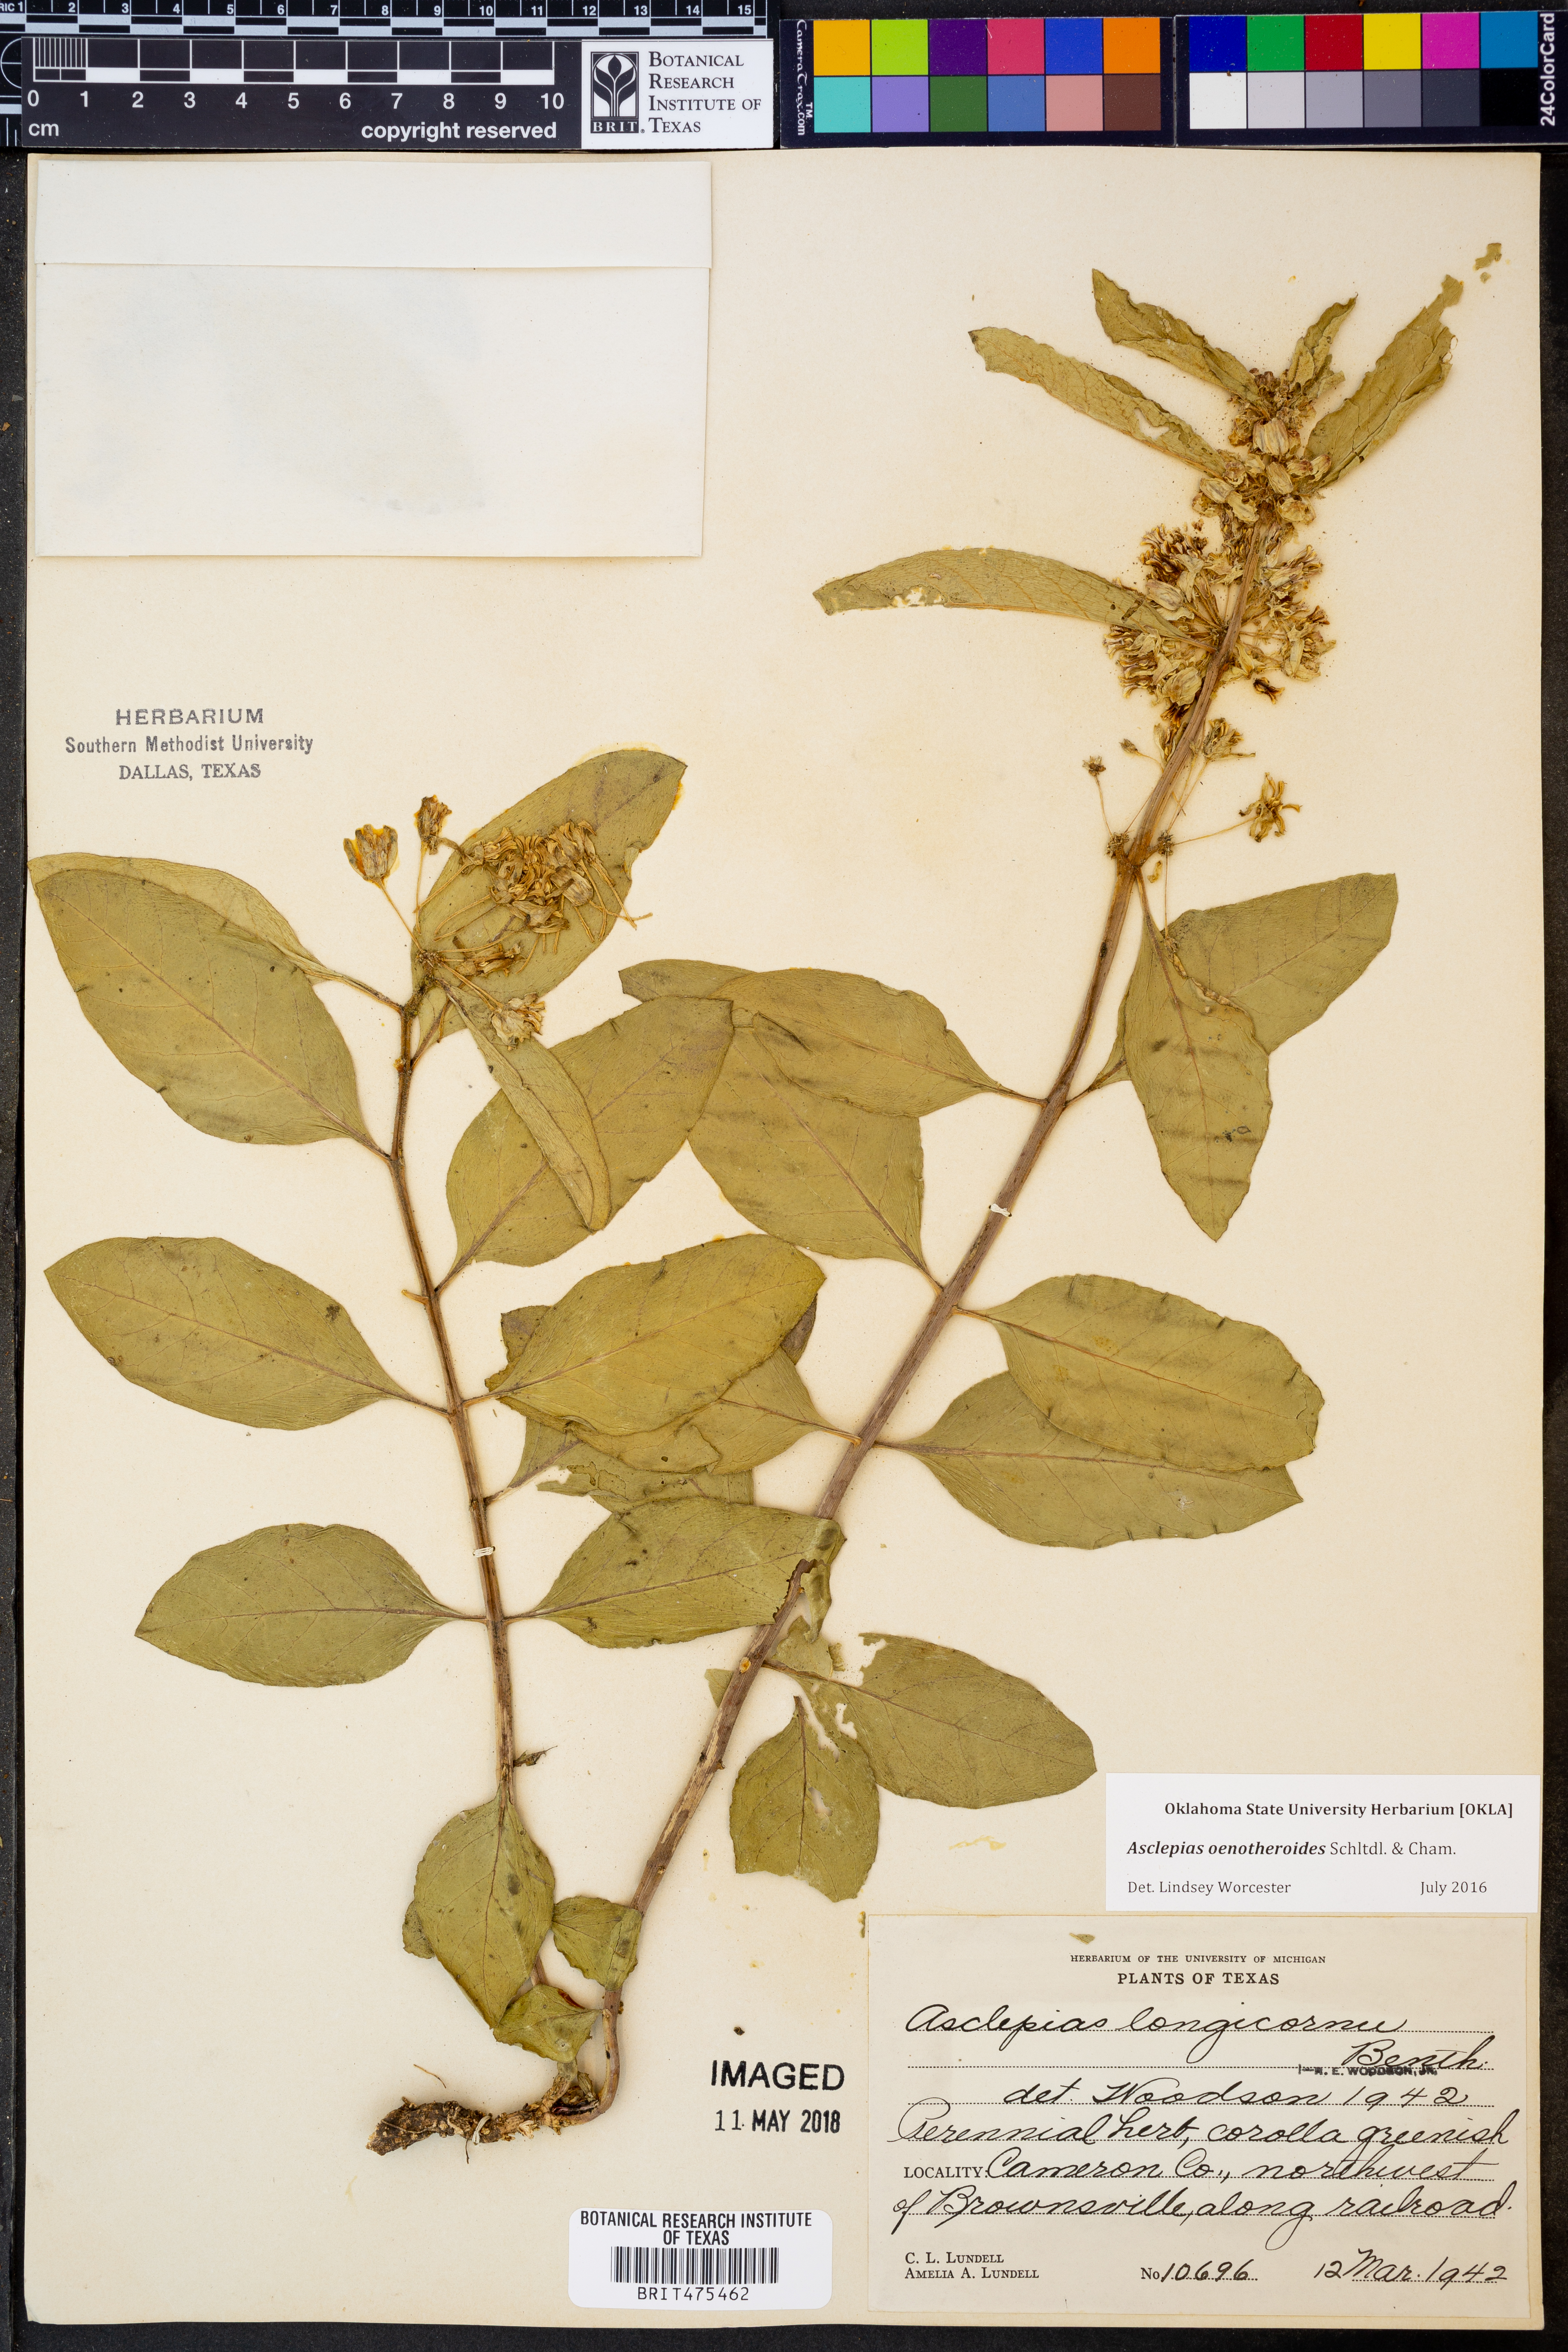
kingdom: Plantae
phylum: Tracheophyta
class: Magnoliopsida
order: Gentianales
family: Apocynaceae
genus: Asclepias
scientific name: Asclepias oenotheroides
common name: Zizotes milkweed
